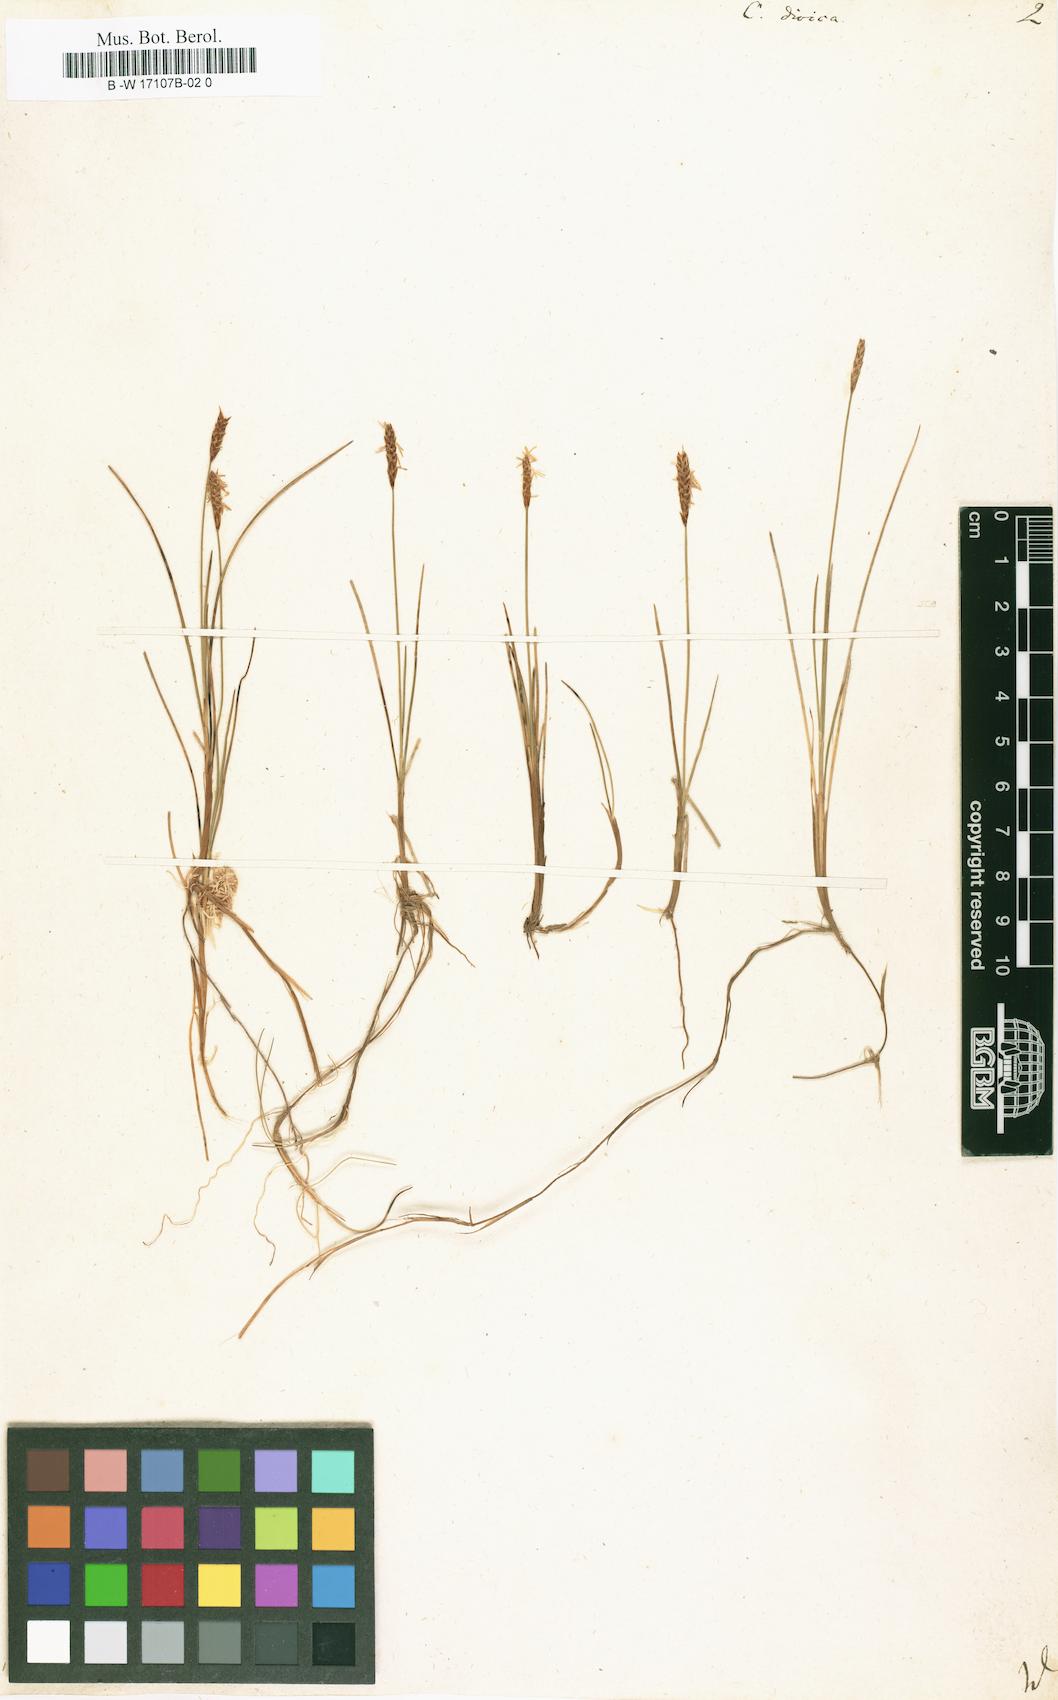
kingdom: Plantae
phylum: Tracheophyta
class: Liliopsida
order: Poales
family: Cyperaceae
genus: Carex
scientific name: Carex dioica
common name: Dioecious sedge
